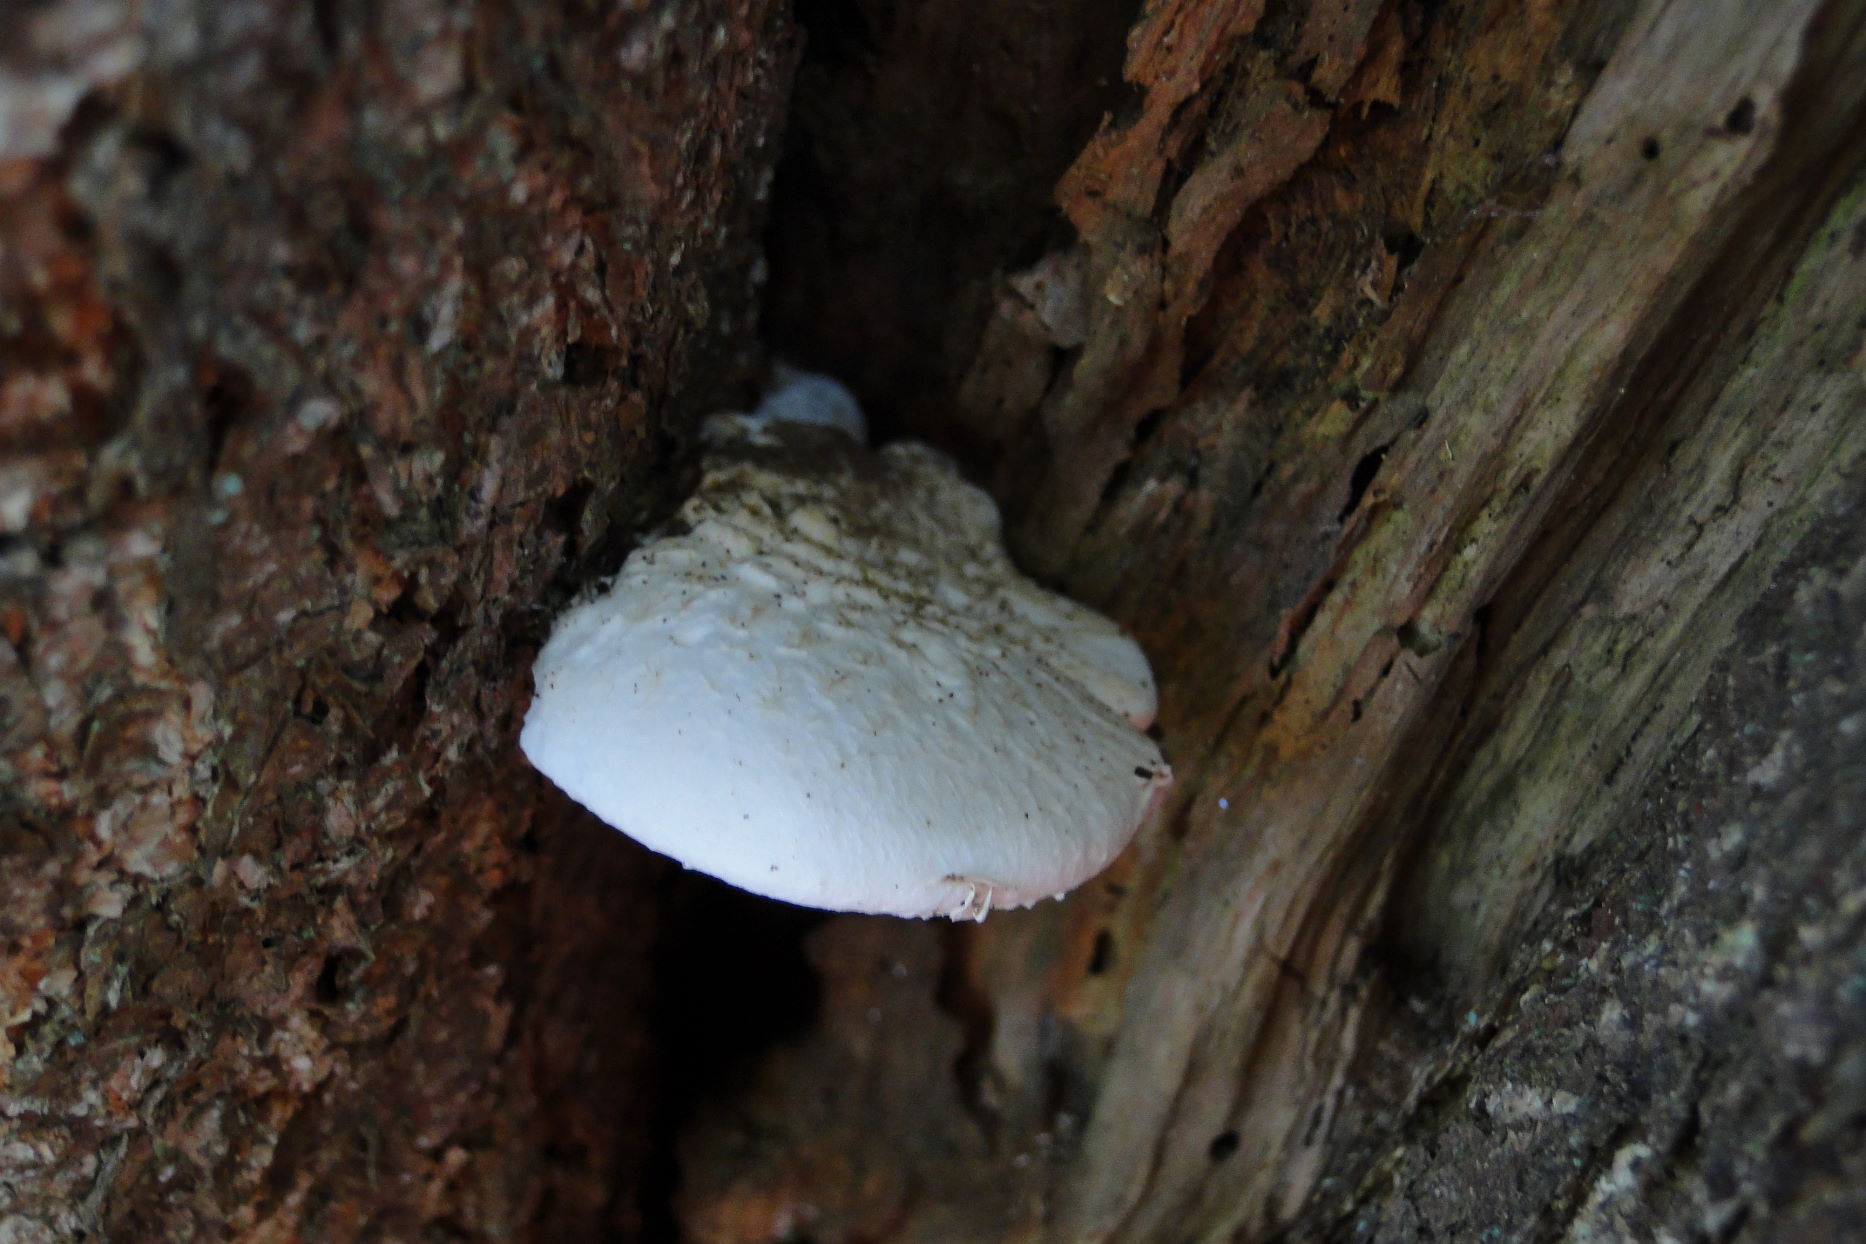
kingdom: Fungi
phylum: Basidiomycota
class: Agaricomycetes
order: Agaricales
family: Pleurotaceae
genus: Pleurotus
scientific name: Pleurotus dryinus
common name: korkagtig østershat
